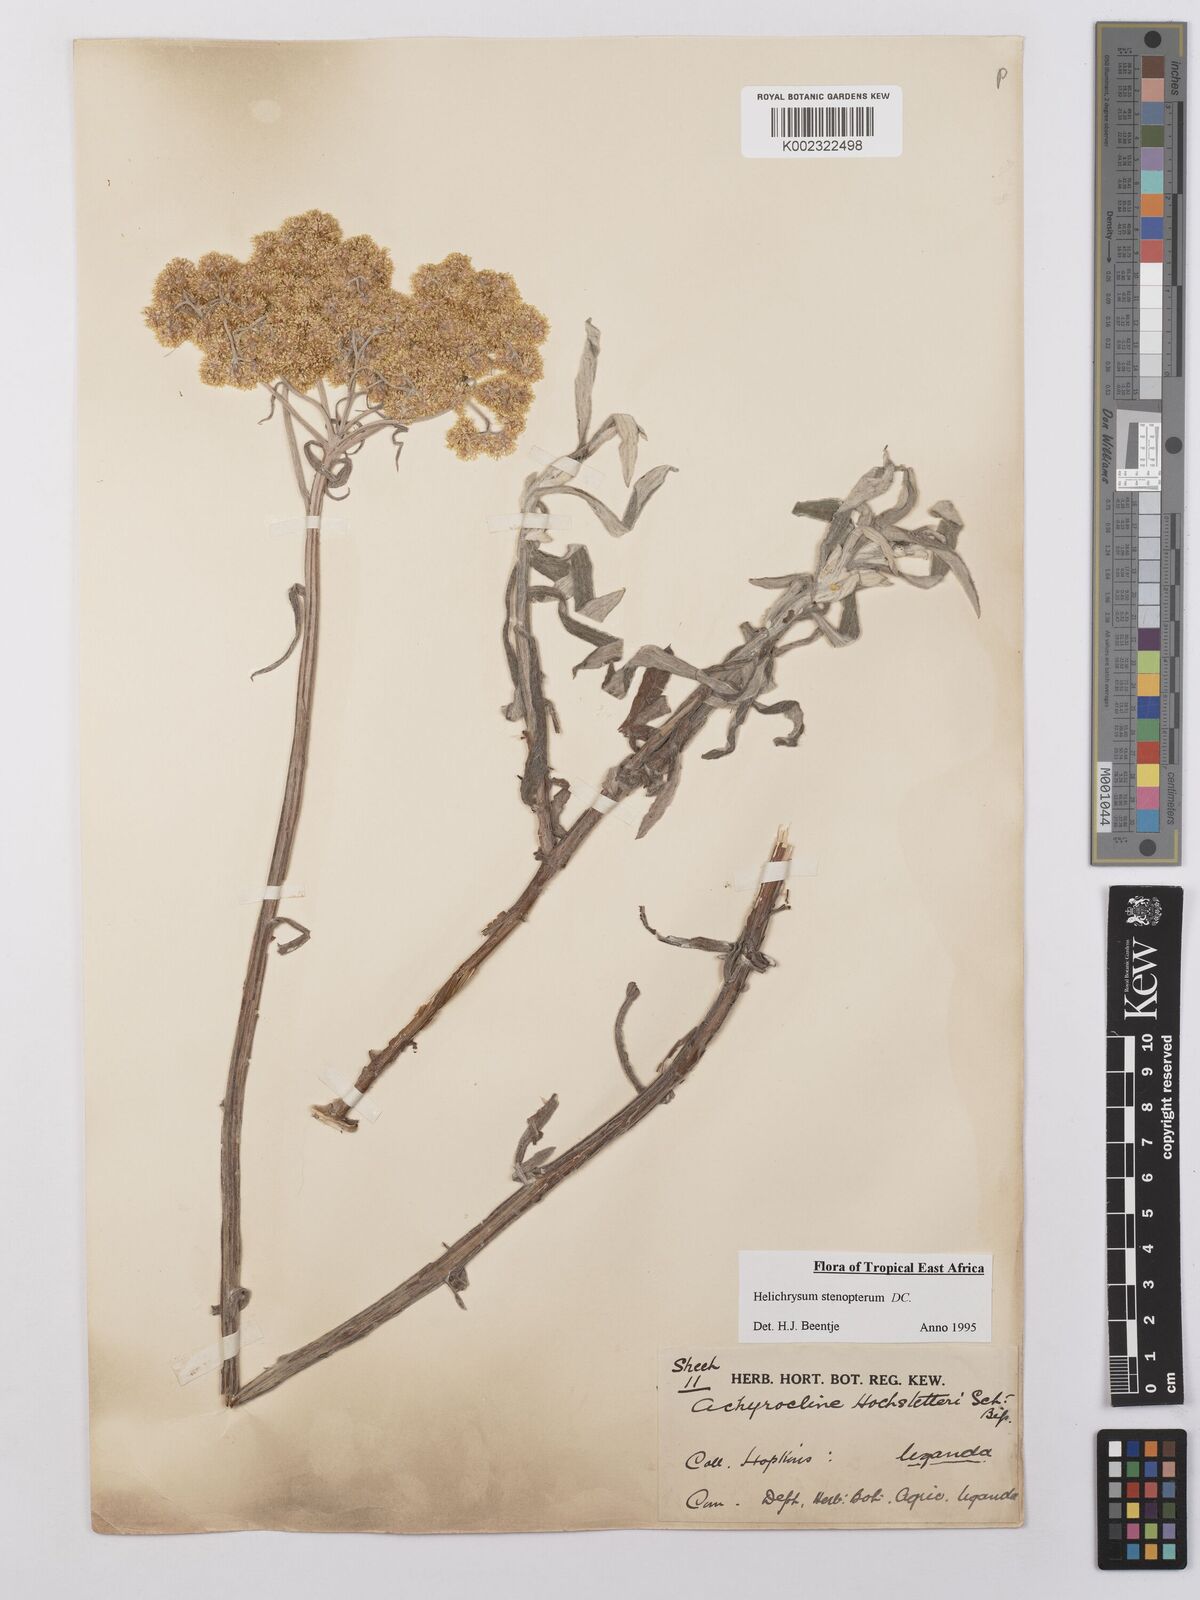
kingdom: Plantae
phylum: Tracheophyta
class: Magnoliopsida
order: Asterales
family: Asteraceae
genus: Helichrysum
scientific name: Helichrysum stenopterum
